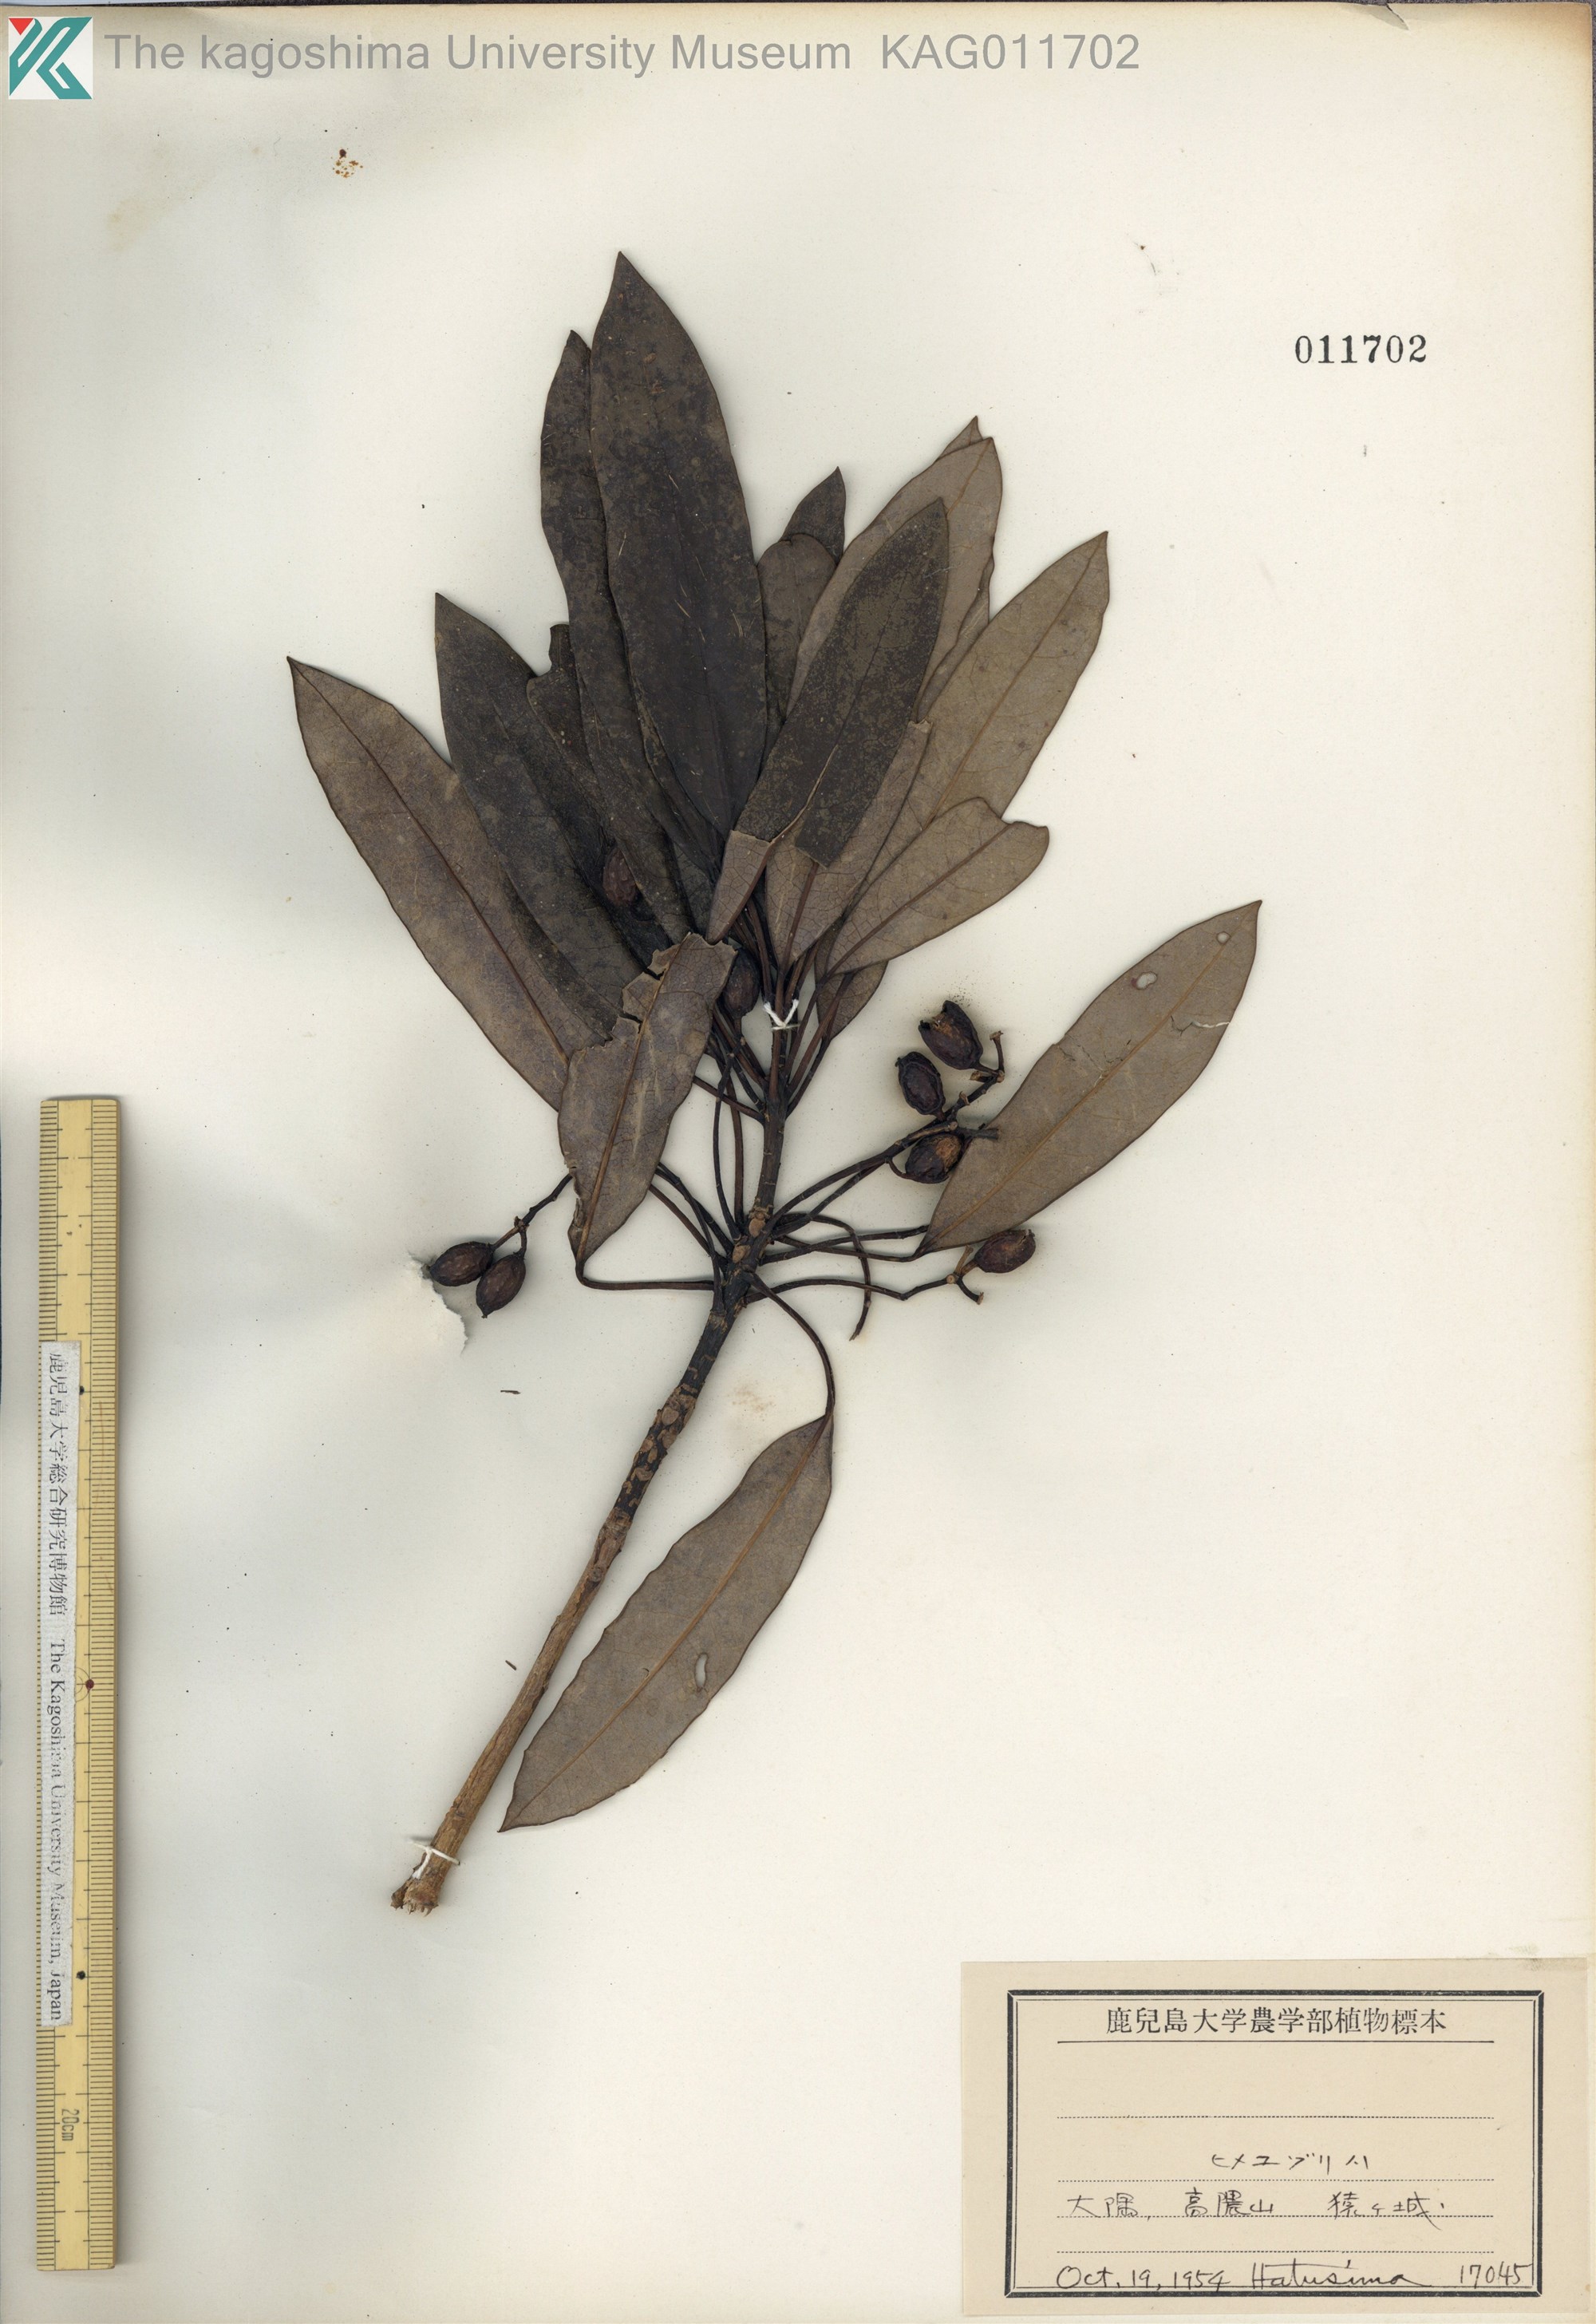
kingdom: Plantae
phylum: Tracheophyta
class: Magnoliopsida
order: Saxifragales
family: Daphniphyllaceae
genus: Daphniphyllum
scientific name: Daphniphyllum teijsmannii
